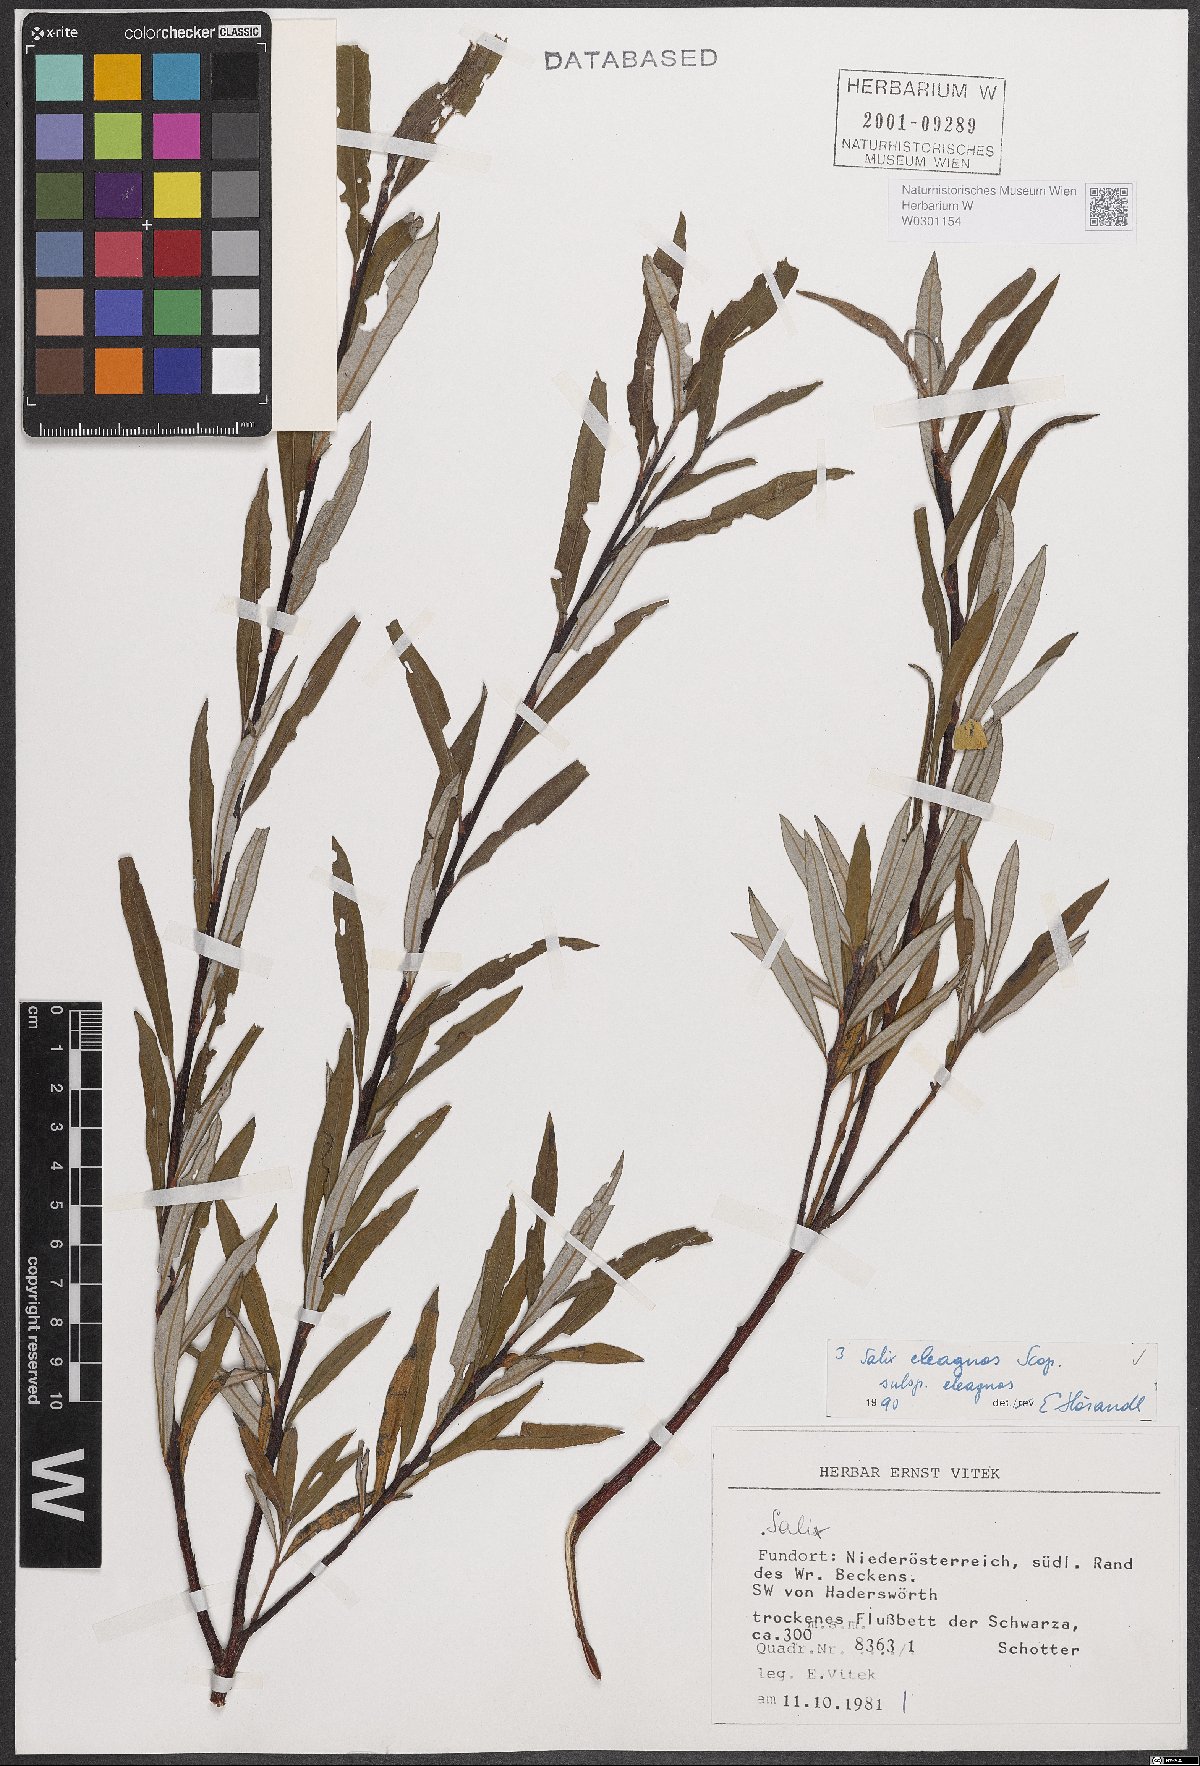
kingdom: Plantae
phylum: Tracheophyta
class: Magnoliopsida
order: Malpighiales
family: Salicaceae
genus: Salix
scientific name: Salix eleagnos
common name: Elaeagnus willow
